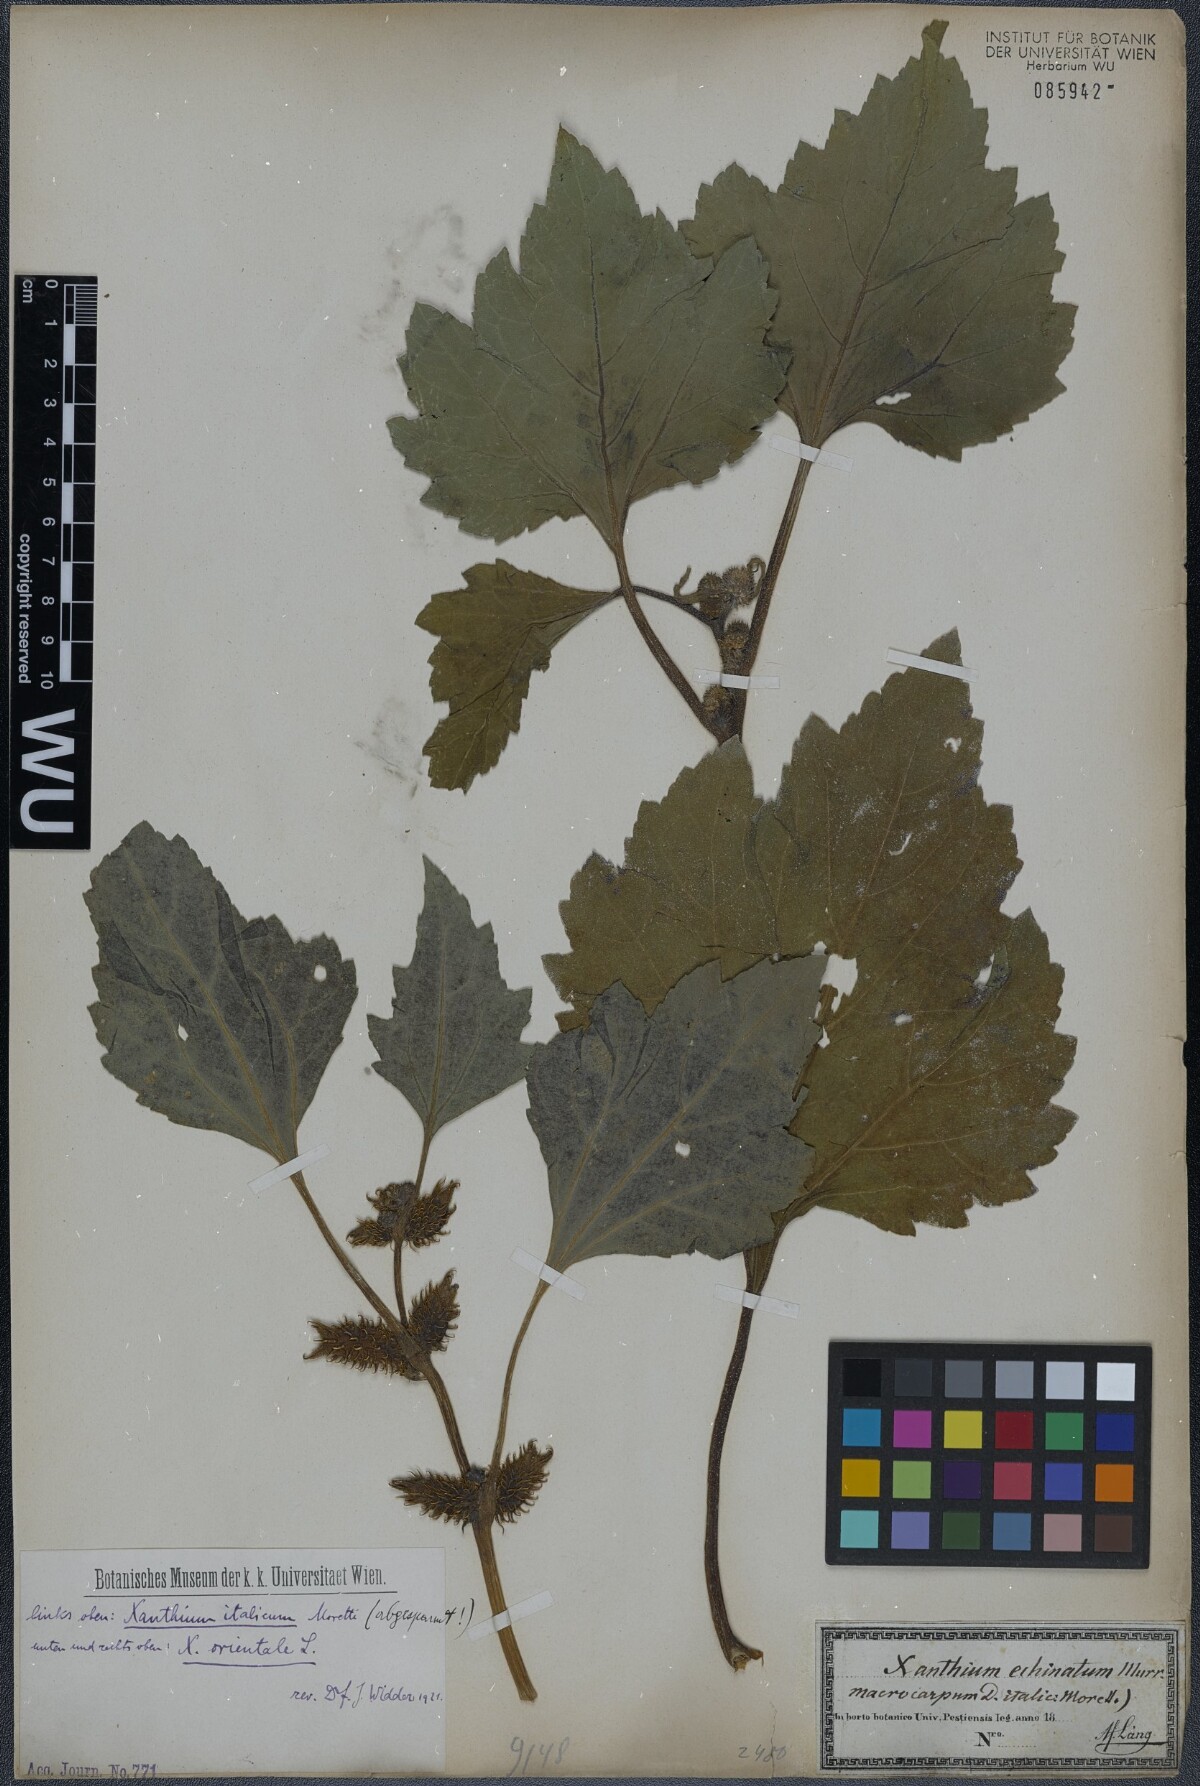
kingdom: Plantae
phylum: Tracheophyta
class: Magnoliopsida
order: Asterales
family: Asteraceae
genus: Xanthium
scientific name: Xanthium orientale
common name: Californian burr
